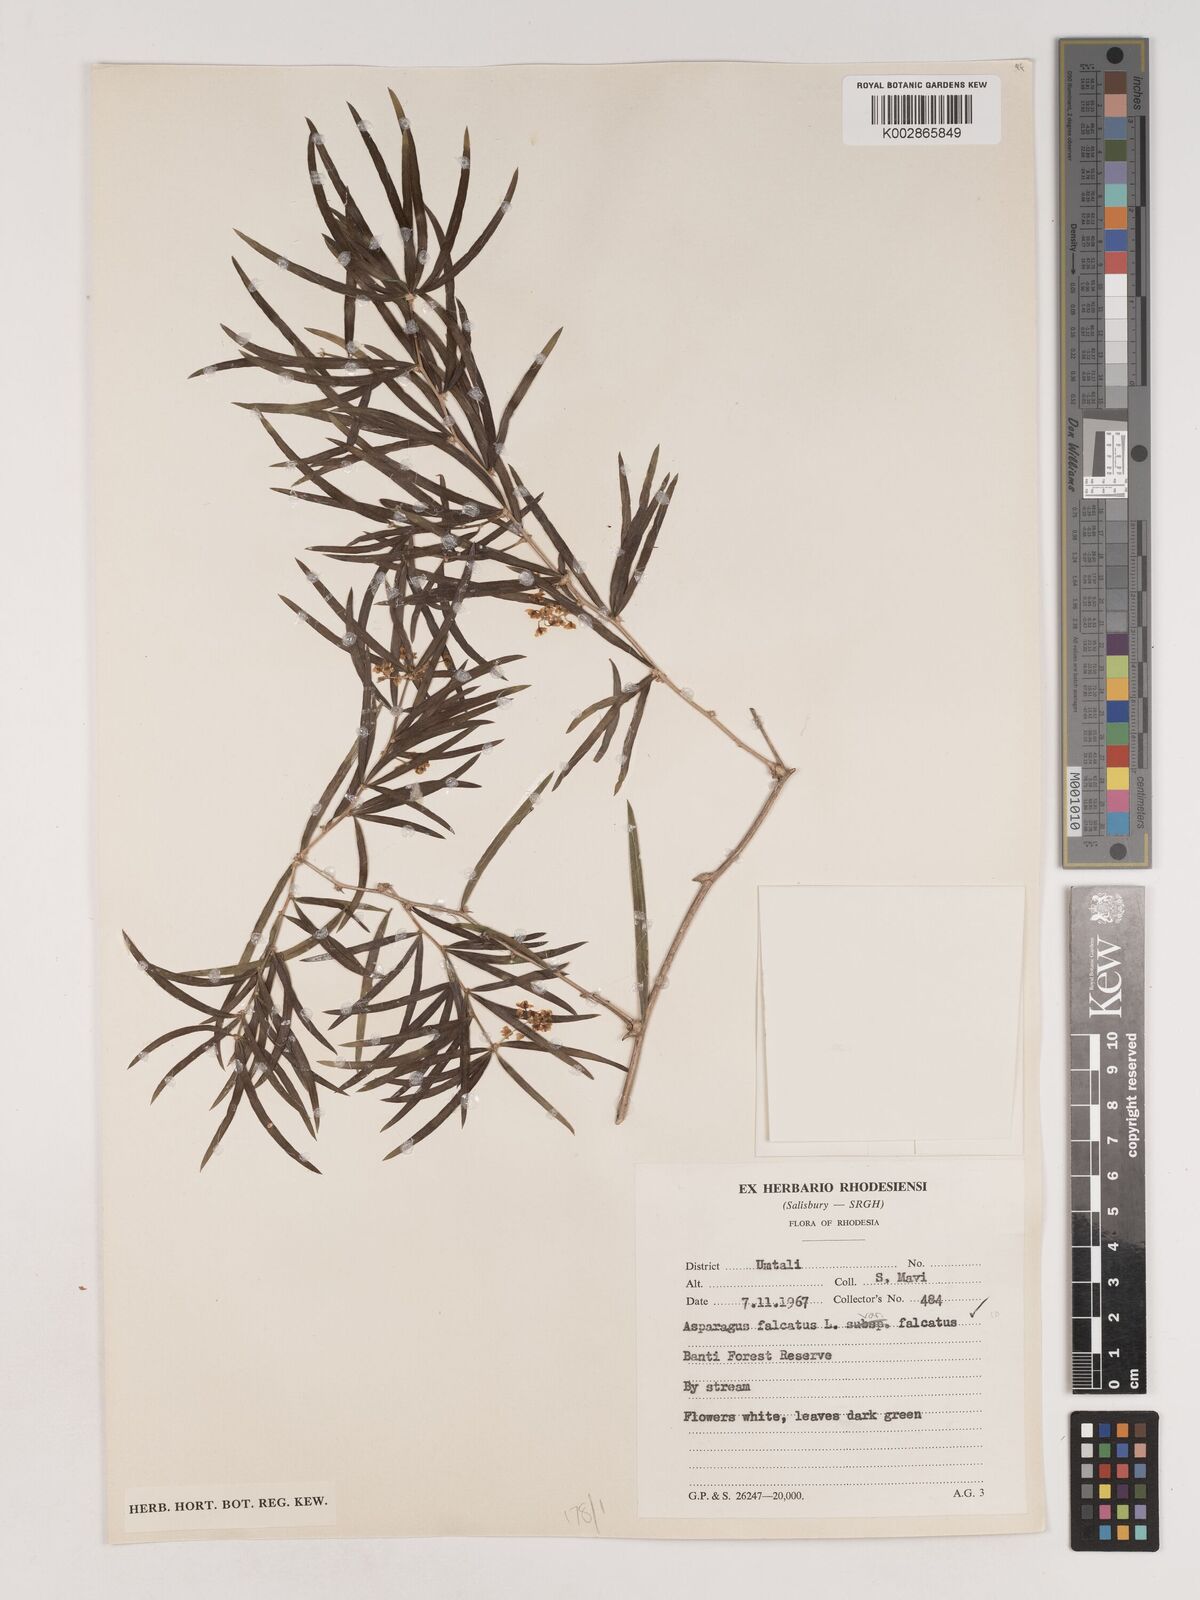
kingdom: Plantae
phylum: Tracheophyta
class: Liliopsida
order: Asparagales
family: Asparagaceae
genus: Asparagus
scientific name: Asparagus falcatus
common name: Asparagus
